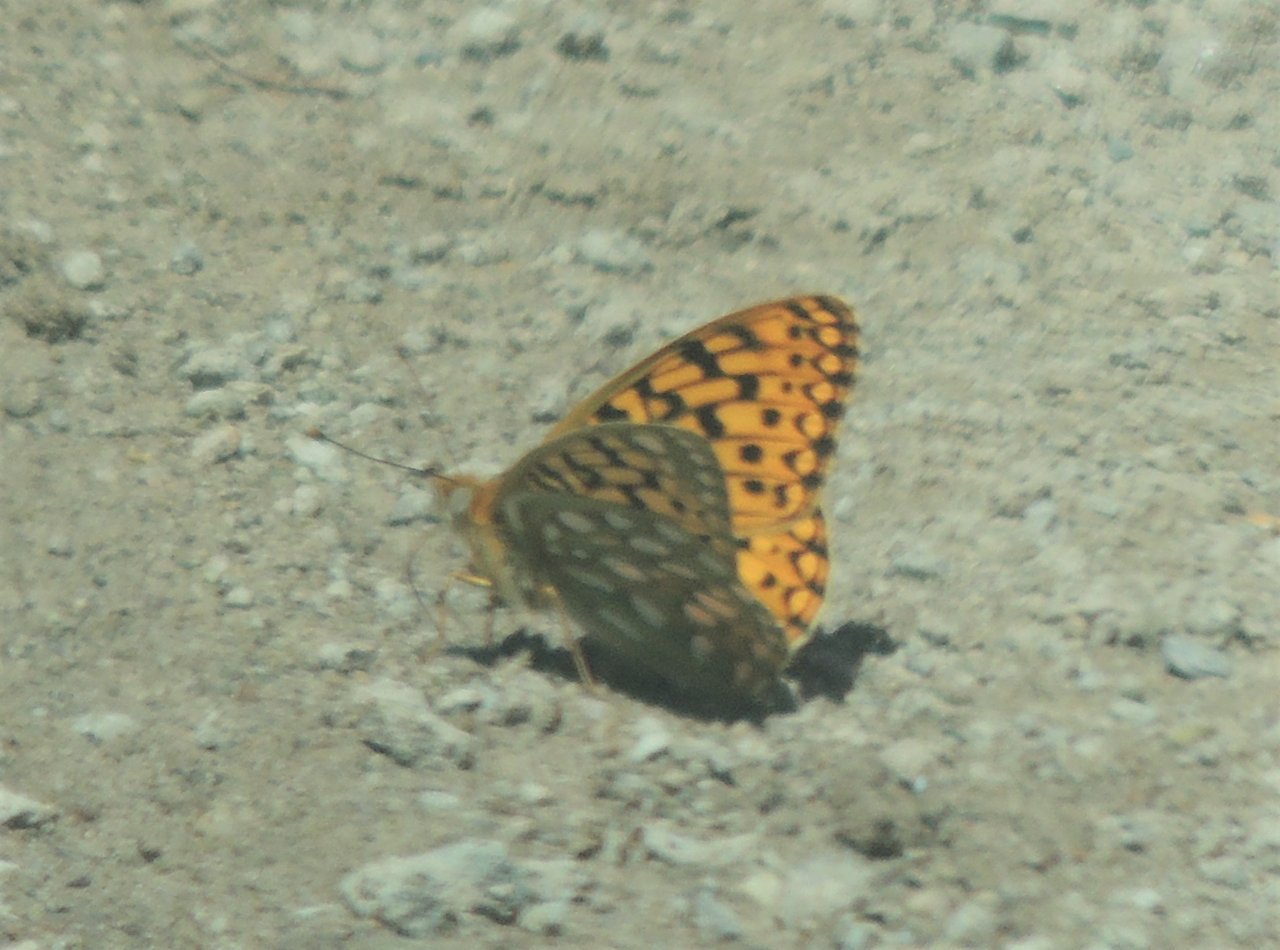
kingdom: Animalia
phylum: Arthropoda
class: Insecta
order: Lepidoptera
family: Nymphalidae
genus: Speyeria
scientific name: Speyeria callippe
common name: Callippe Fritillary
